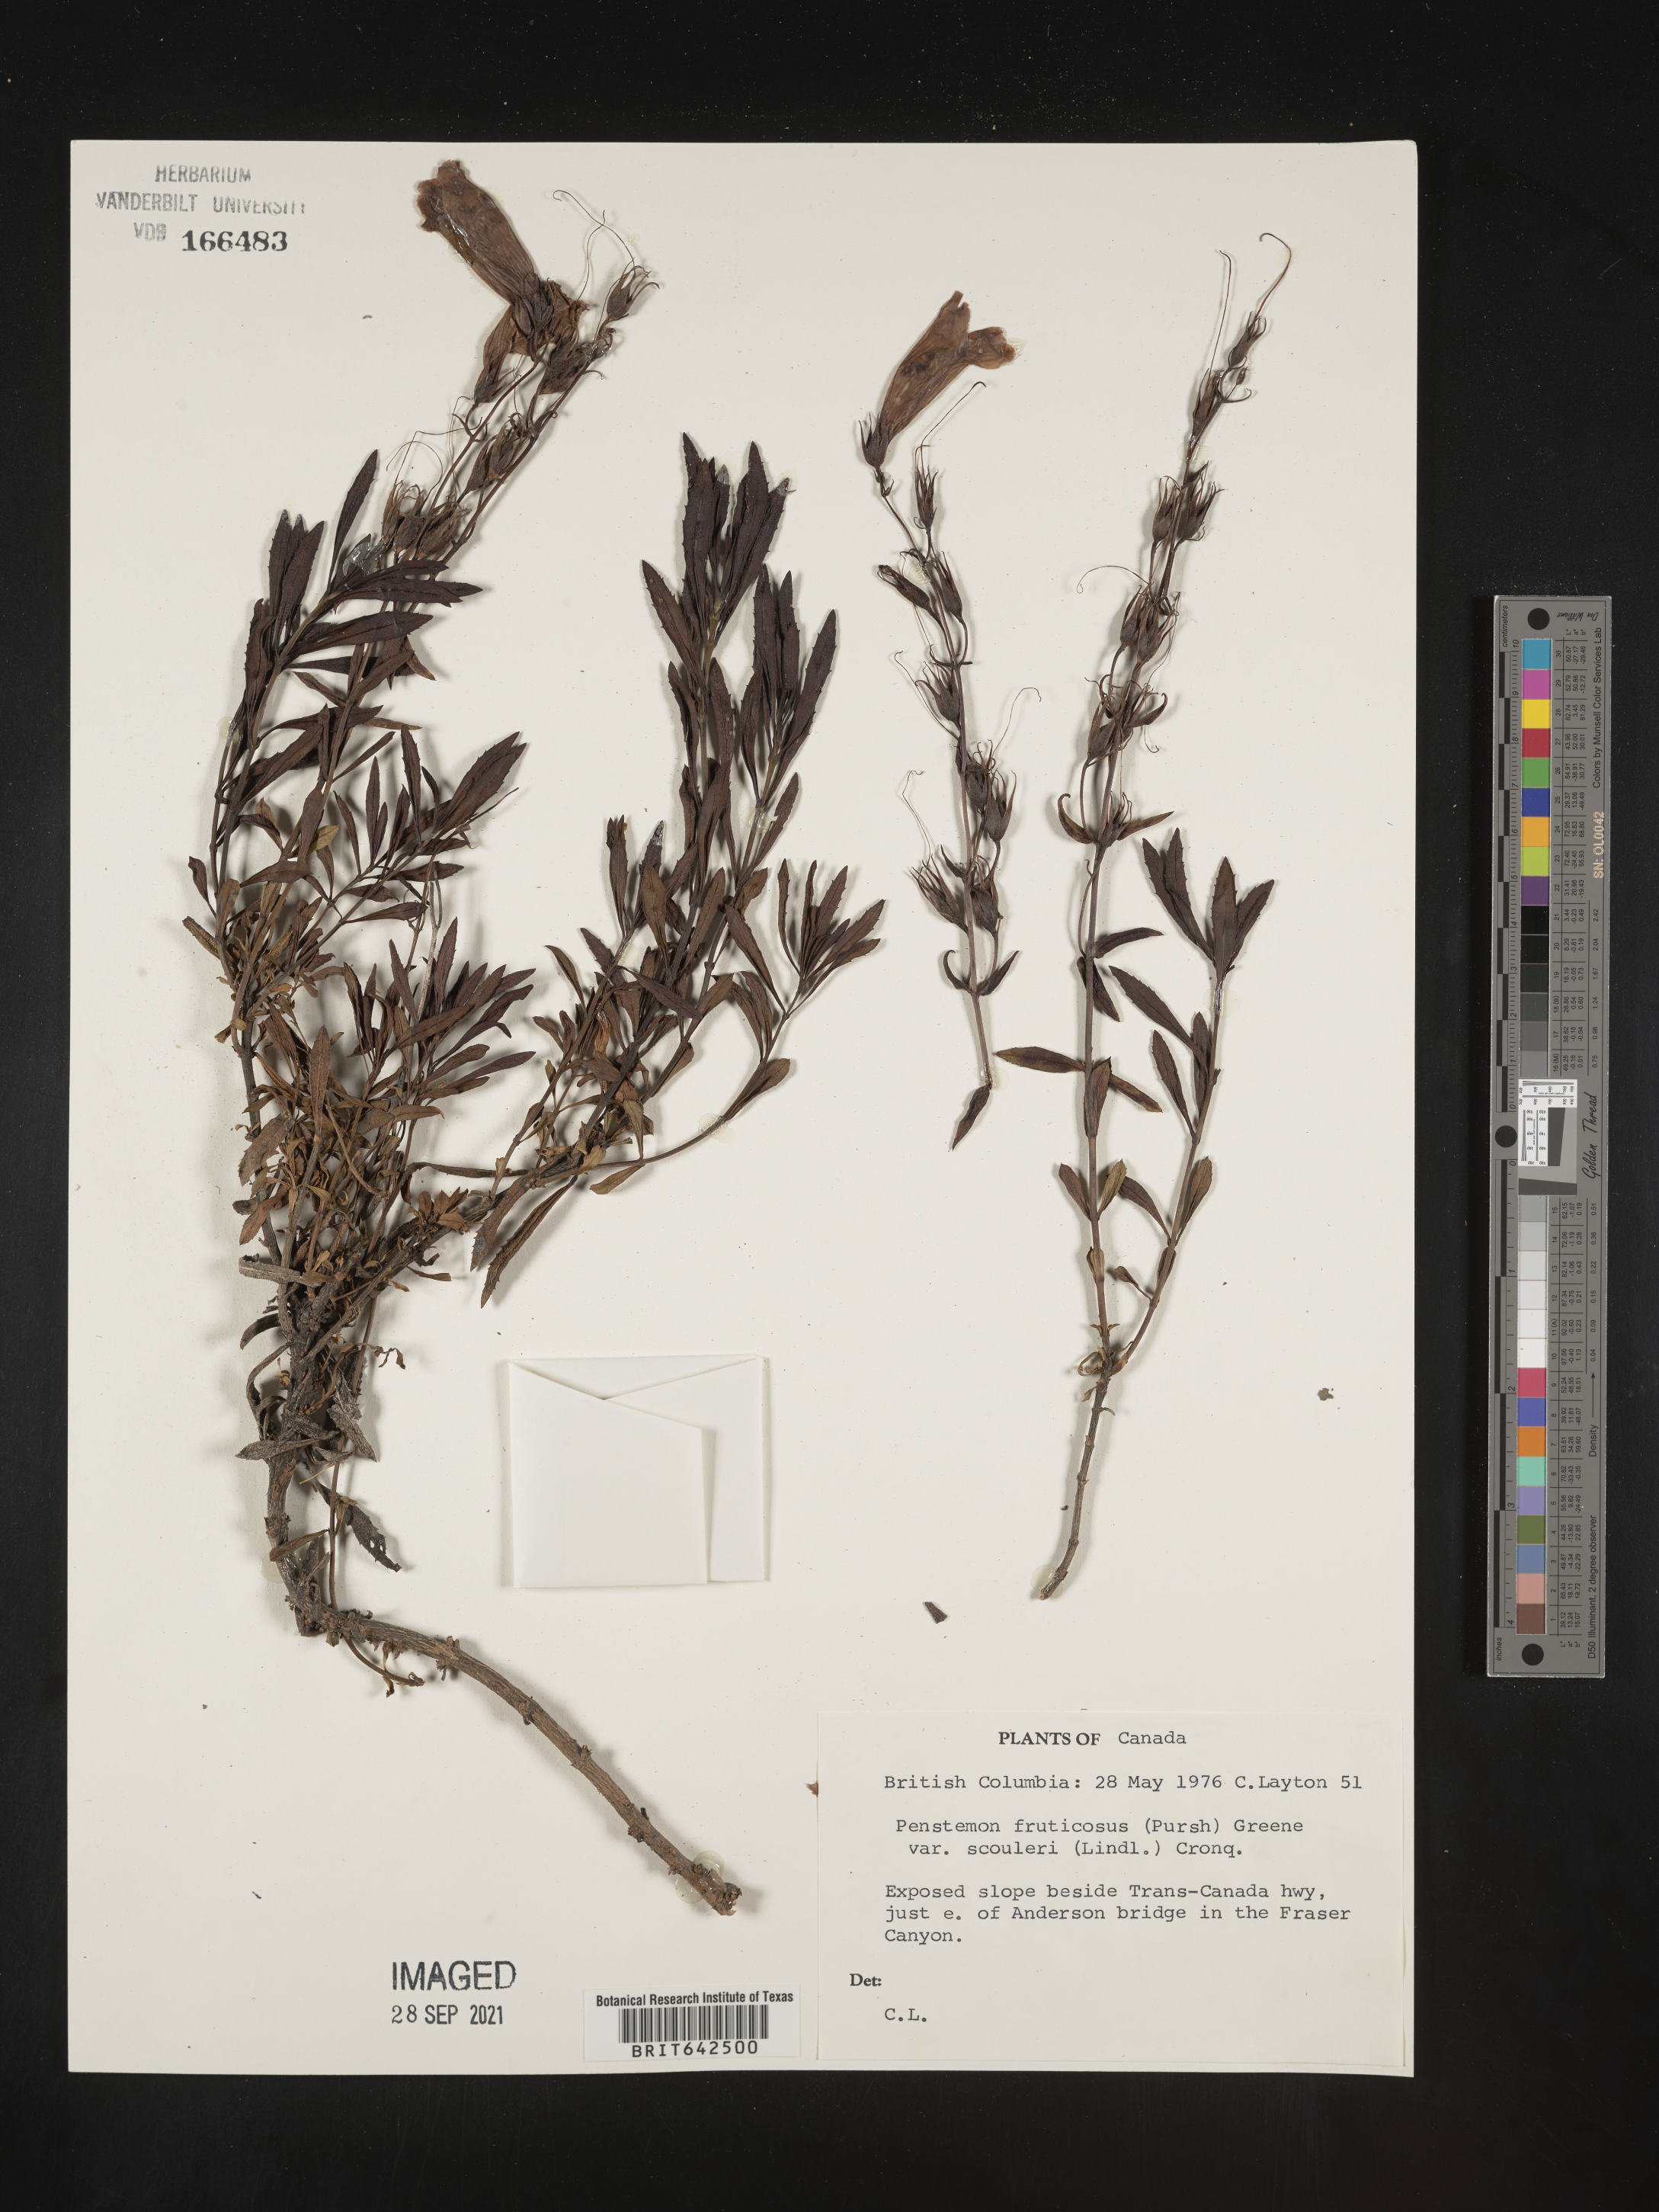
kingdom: Plantae
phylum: Tracheophyta
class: Magnoliopsida
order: Lamiales
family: Plantaginaceae
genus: Penstemon
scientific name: Penstemon
